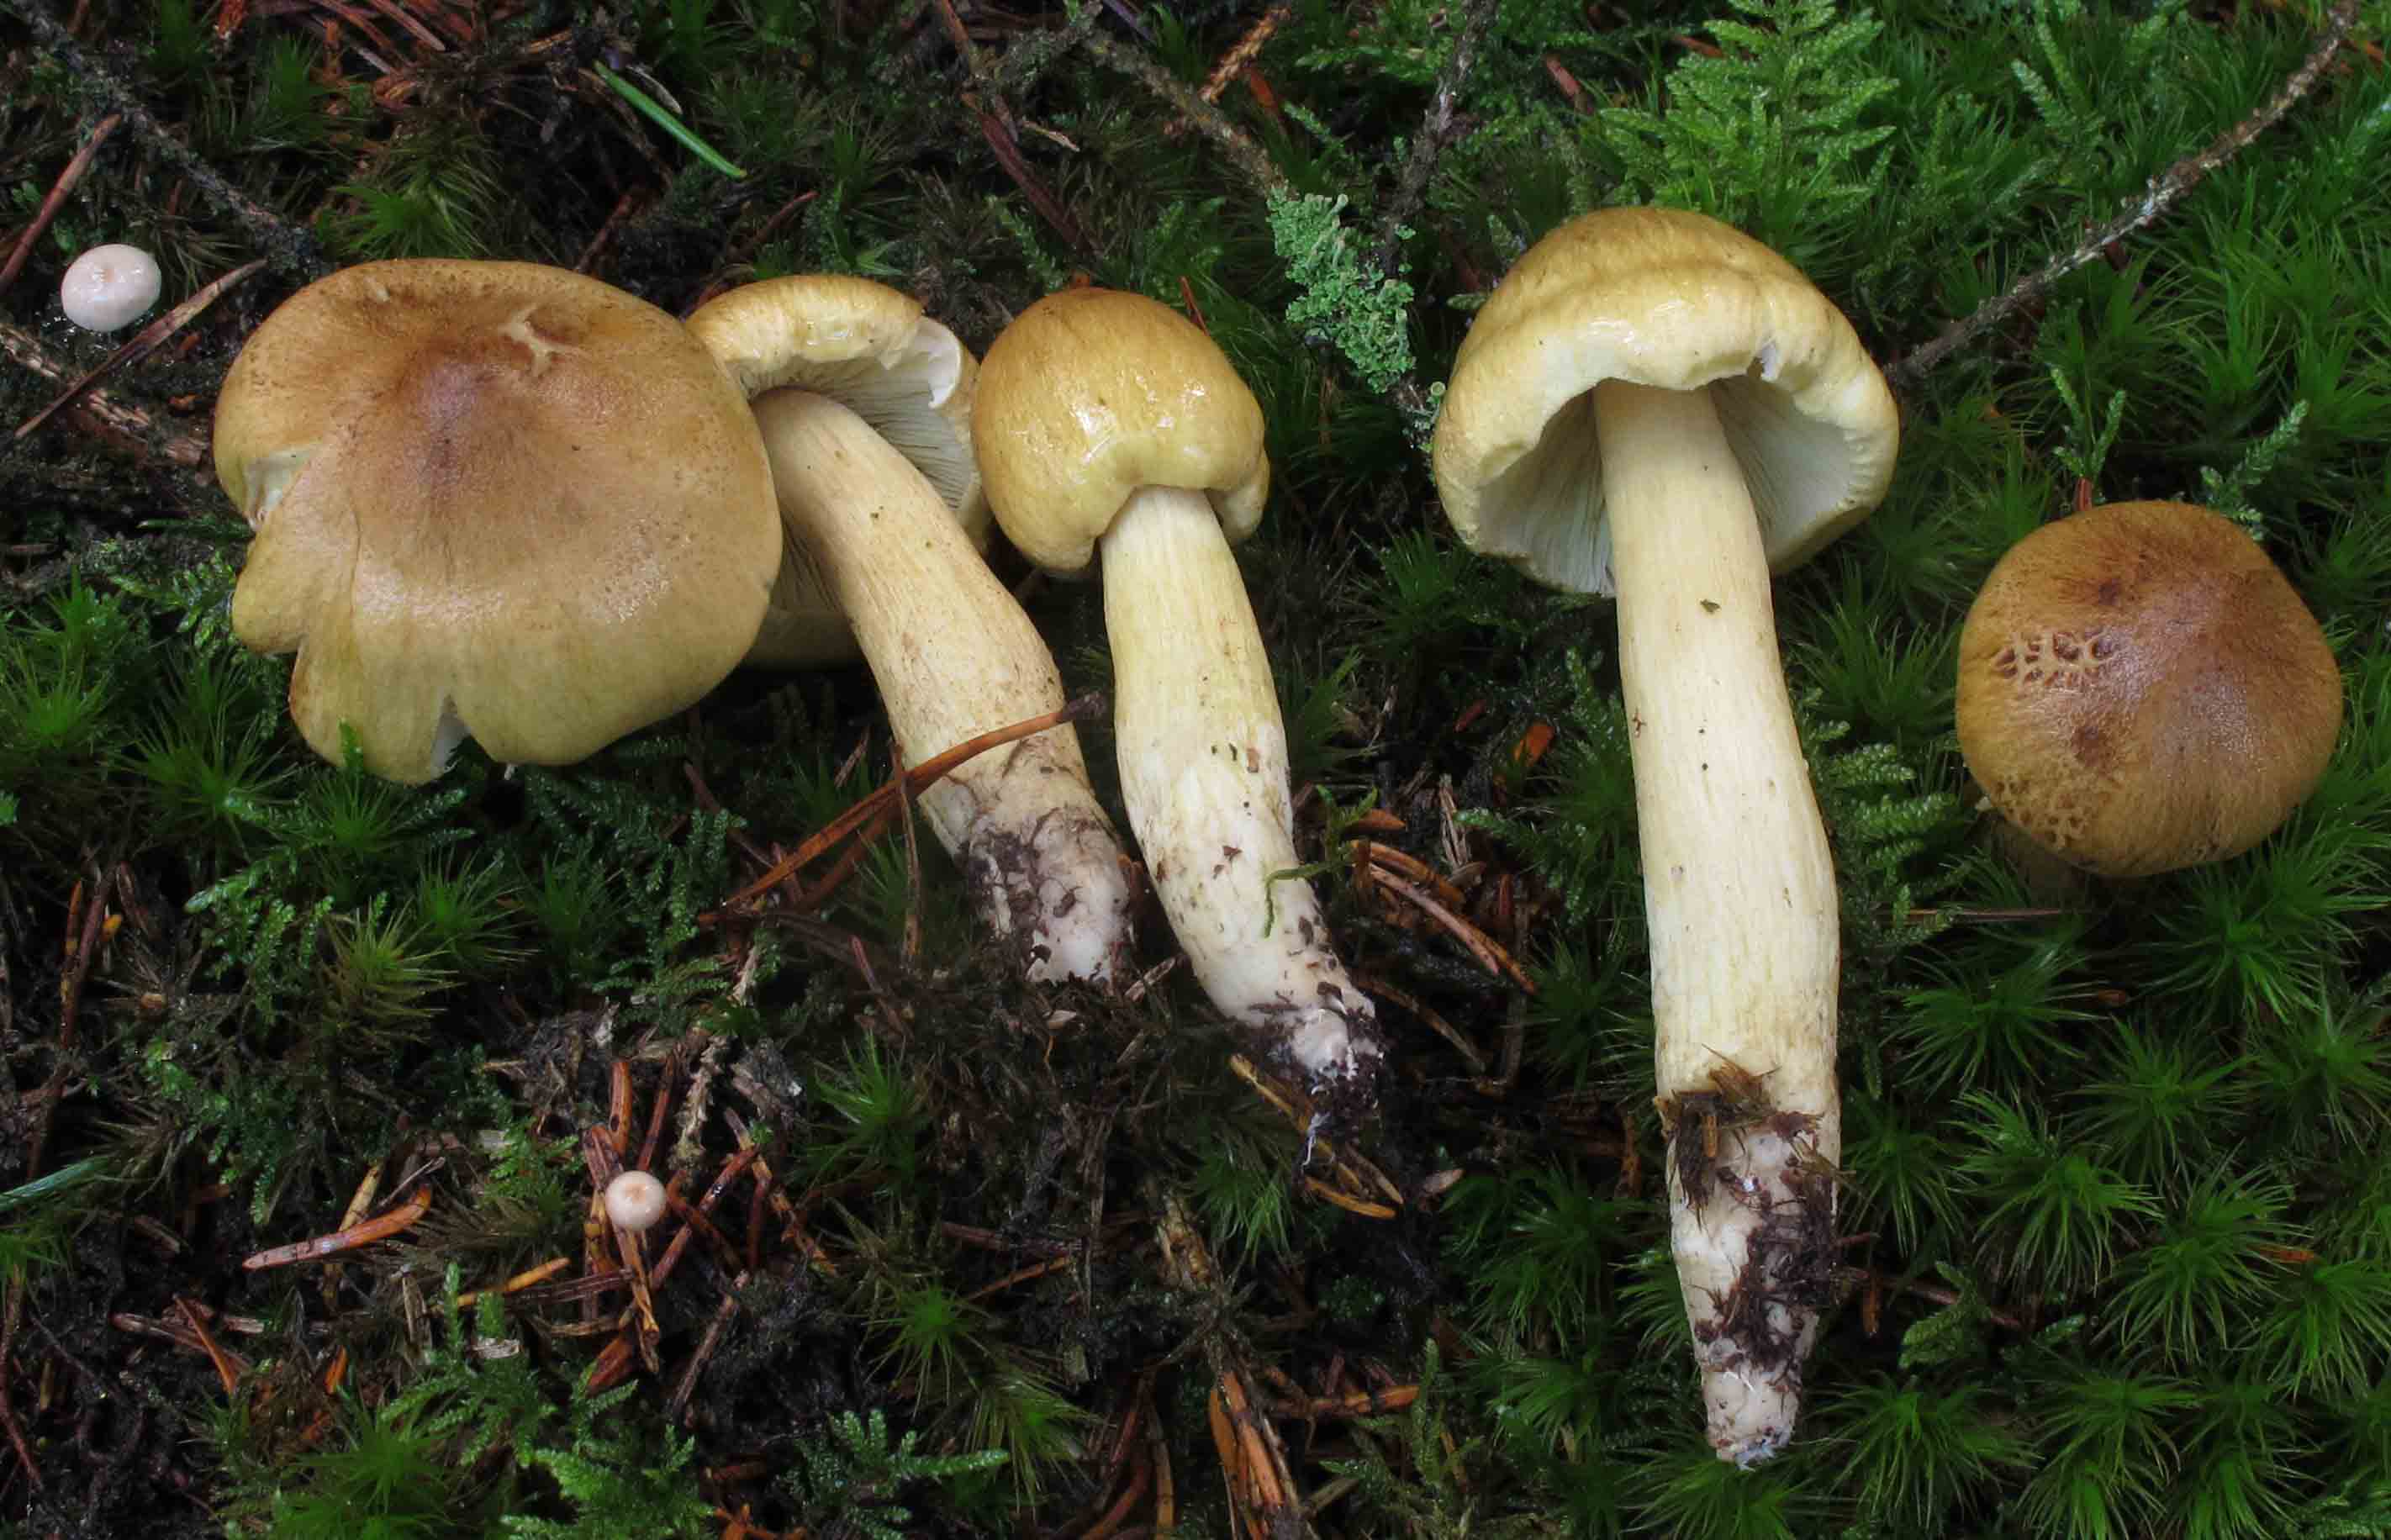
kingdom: Fungi
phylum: Basidiomycota
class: Agaricomycetes
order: Agaricales
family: Tricholomataceae
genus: Tricholoma
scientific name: Tricholoma aestuans
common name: kegle-ridderhat
